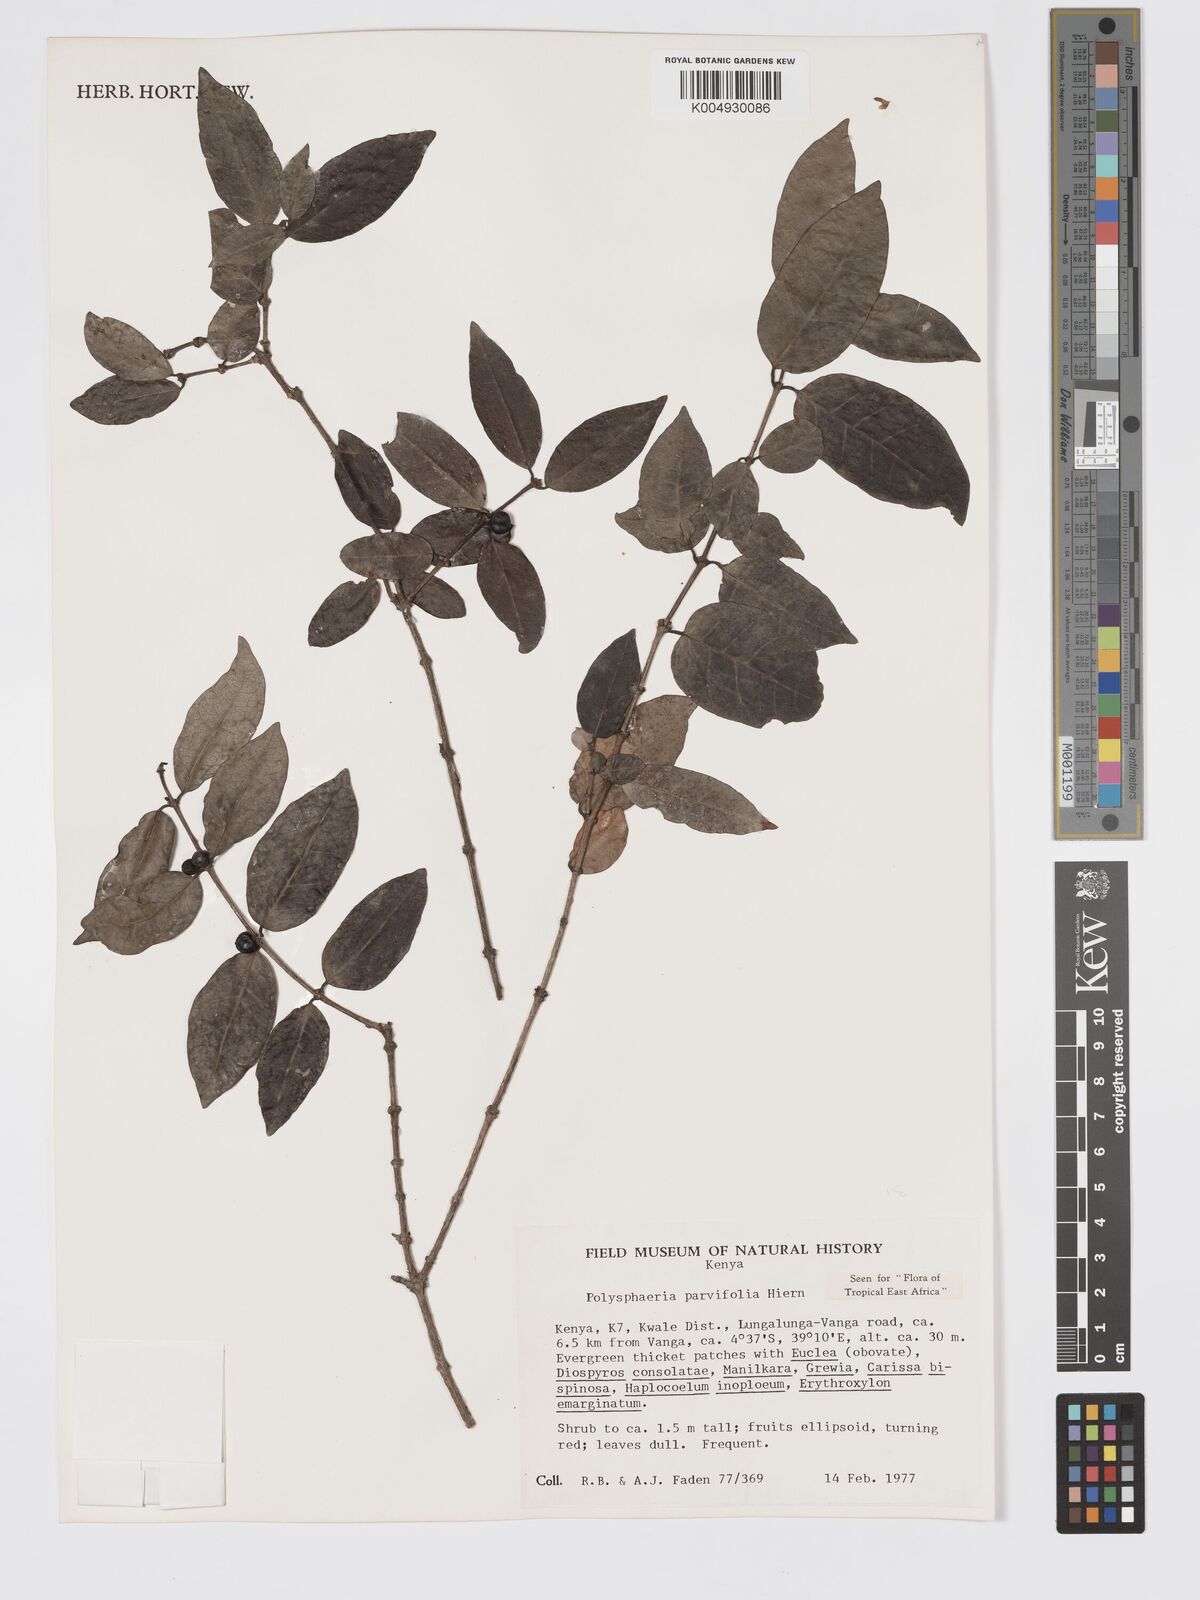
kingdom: Plantae
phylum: Tracheophyta
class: Magnoliopsida
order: Gentianales
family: Rubiaceae
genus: Polysphaeria
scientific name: Polysphaeria parvifolia
